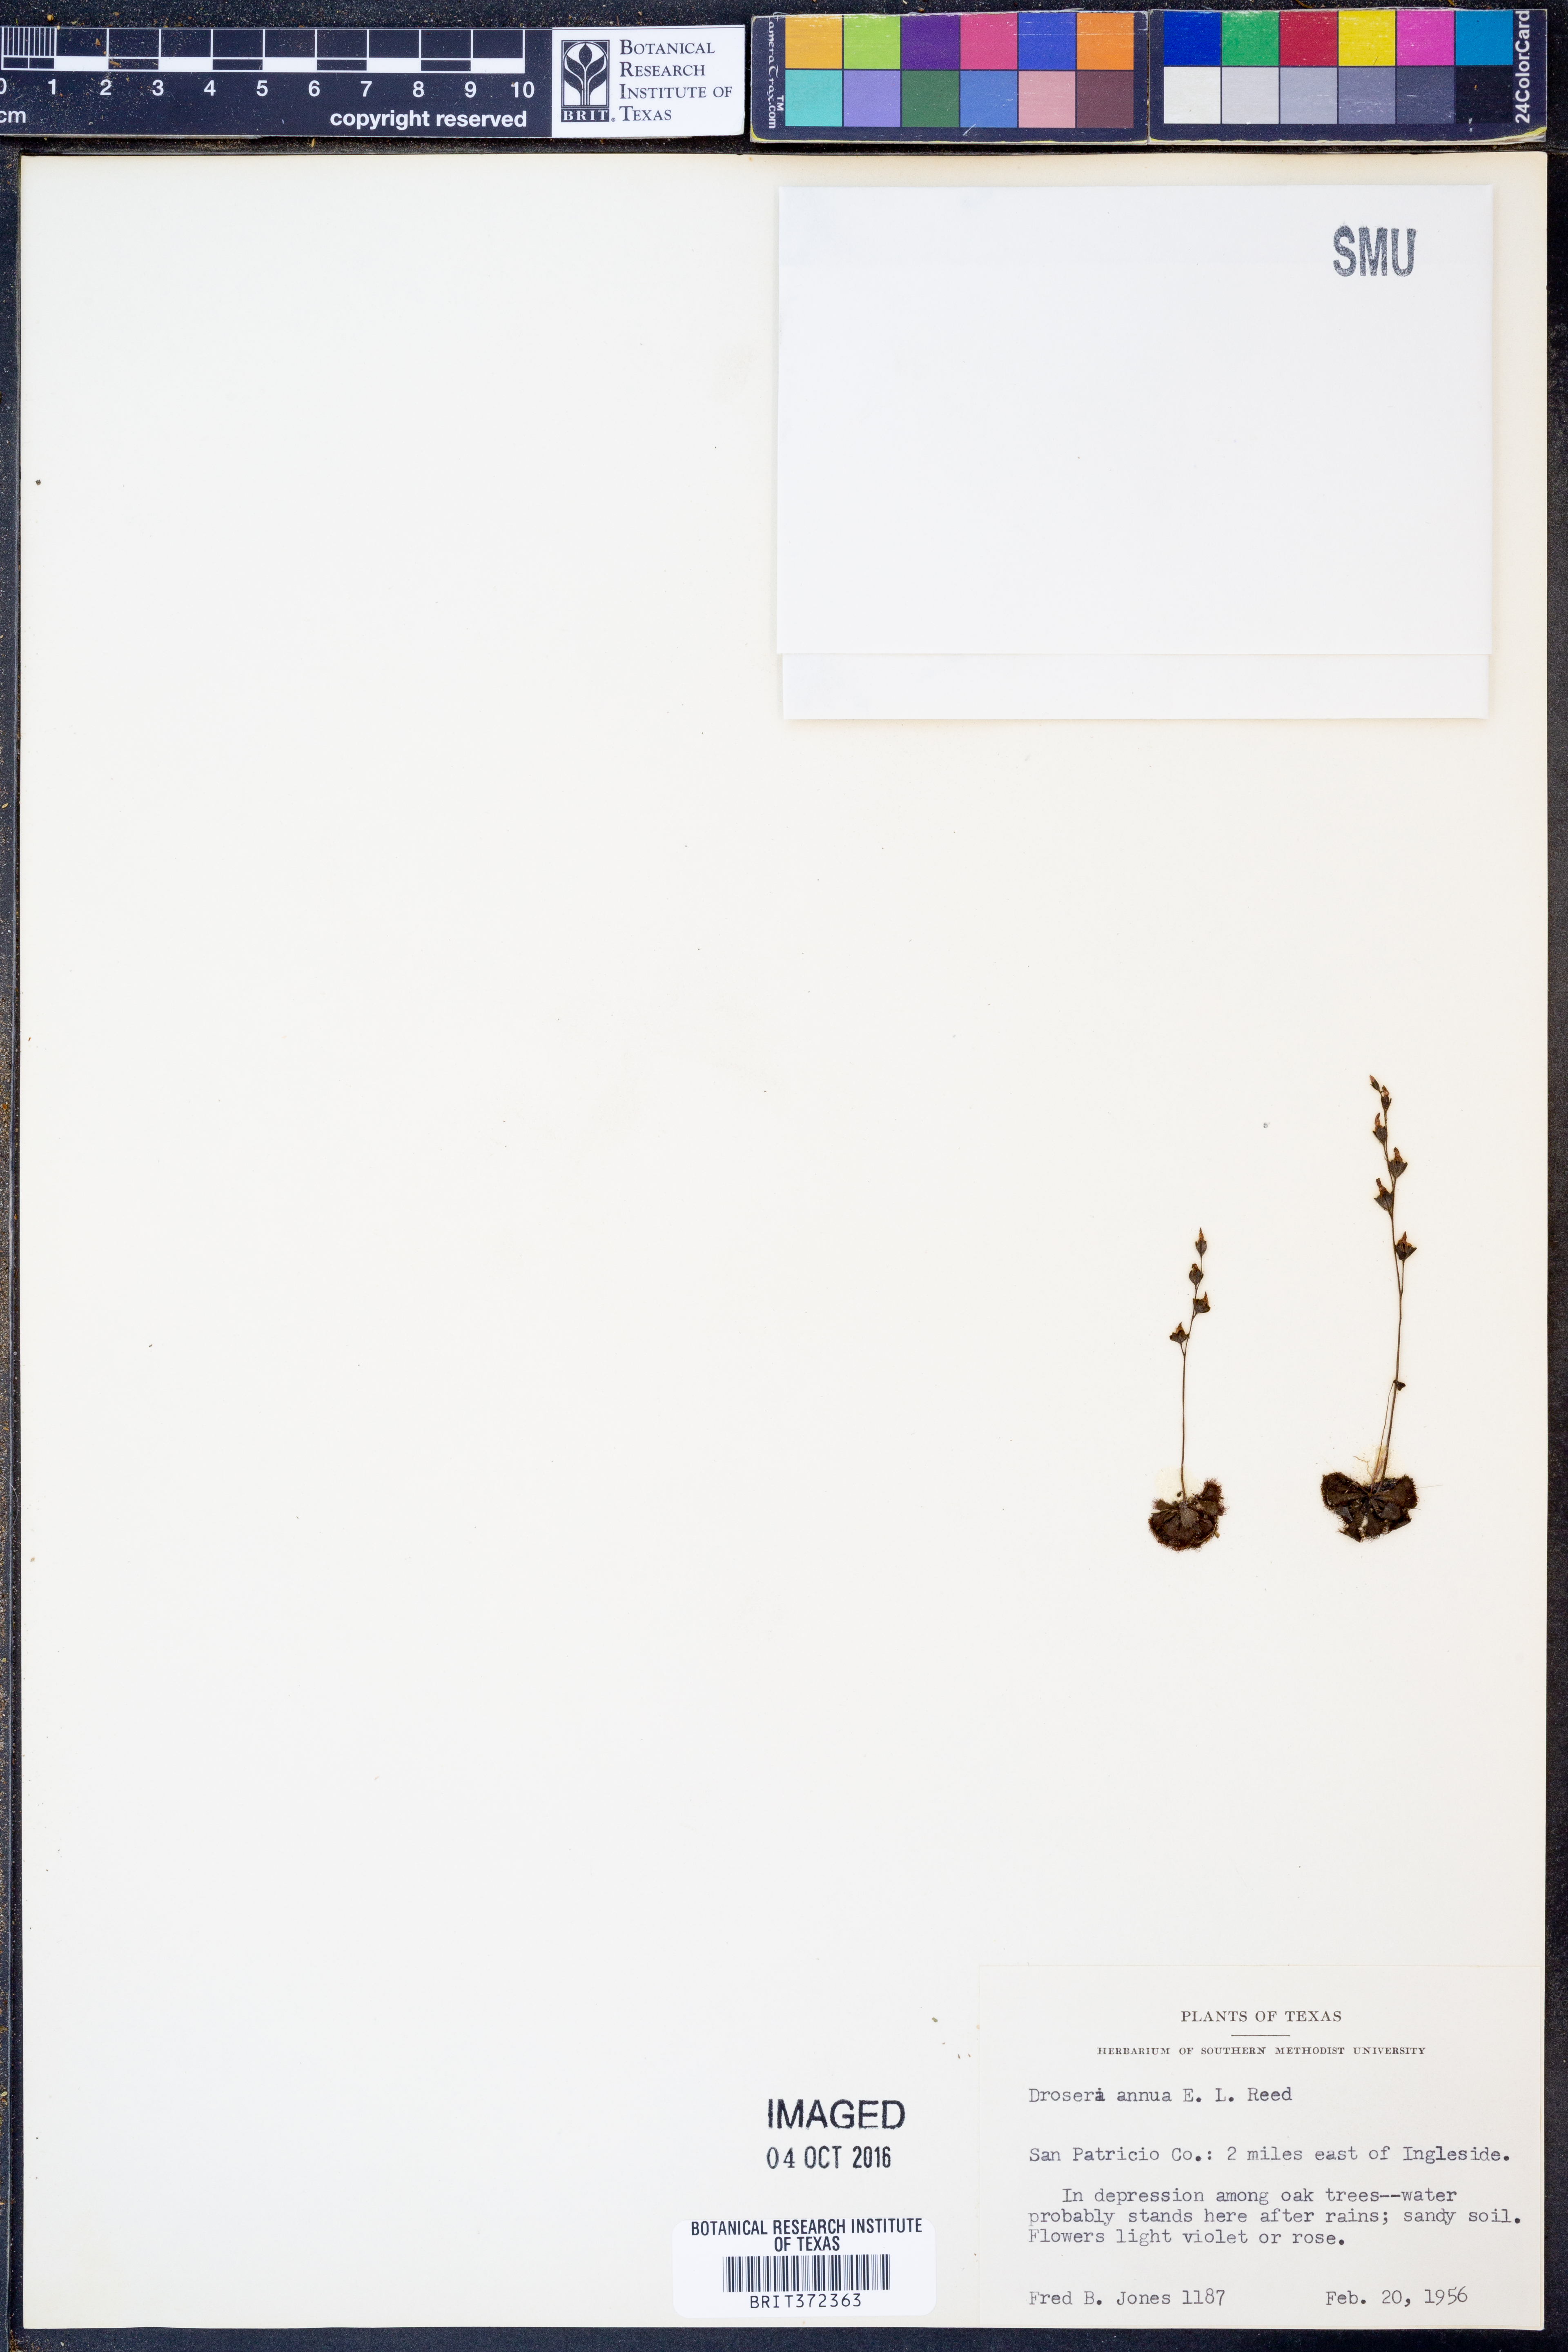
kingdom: Plantae
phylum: Tracheophyta
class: Magnoliopsida
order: Caryophyllales
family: Droseraceae
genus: Drosera
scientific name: Drosera brevifolia
